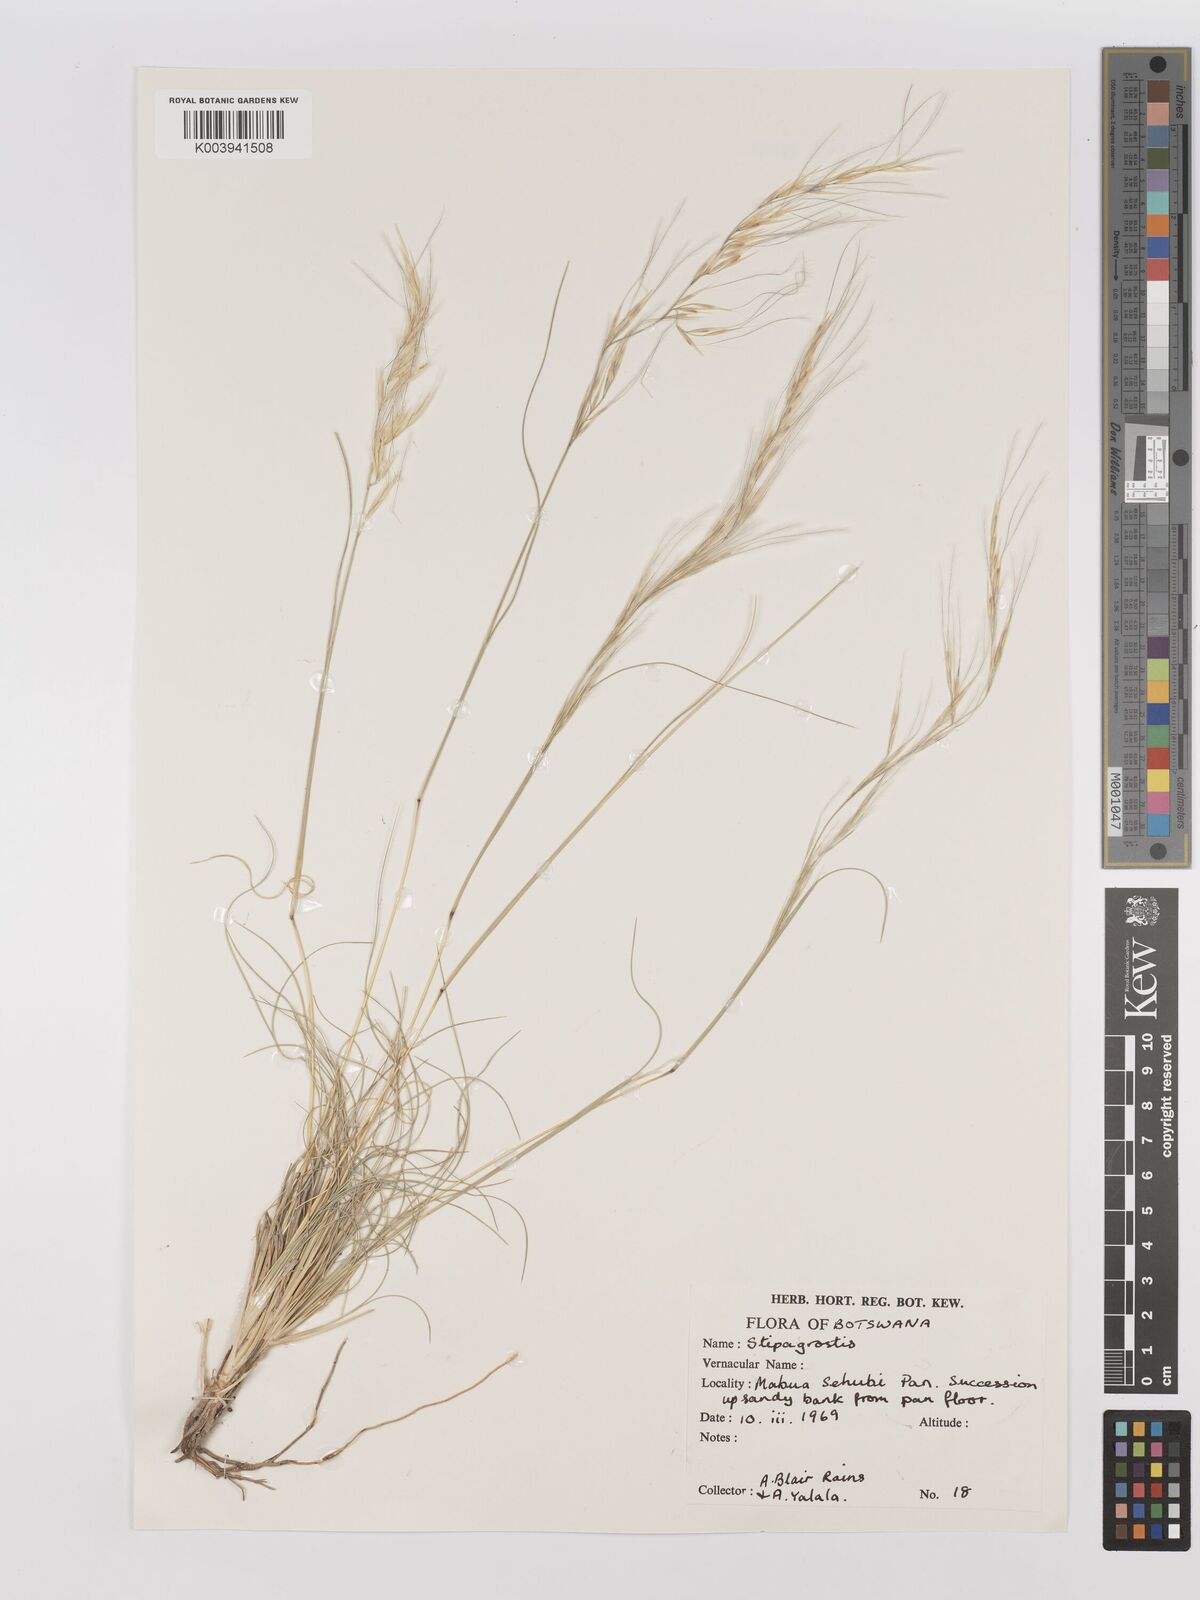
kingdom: Plantae
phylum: Tracheophyta
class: Liliopsida
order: Poales
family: Poaceae
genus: Stipagrostis
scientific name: Stipagrostis
